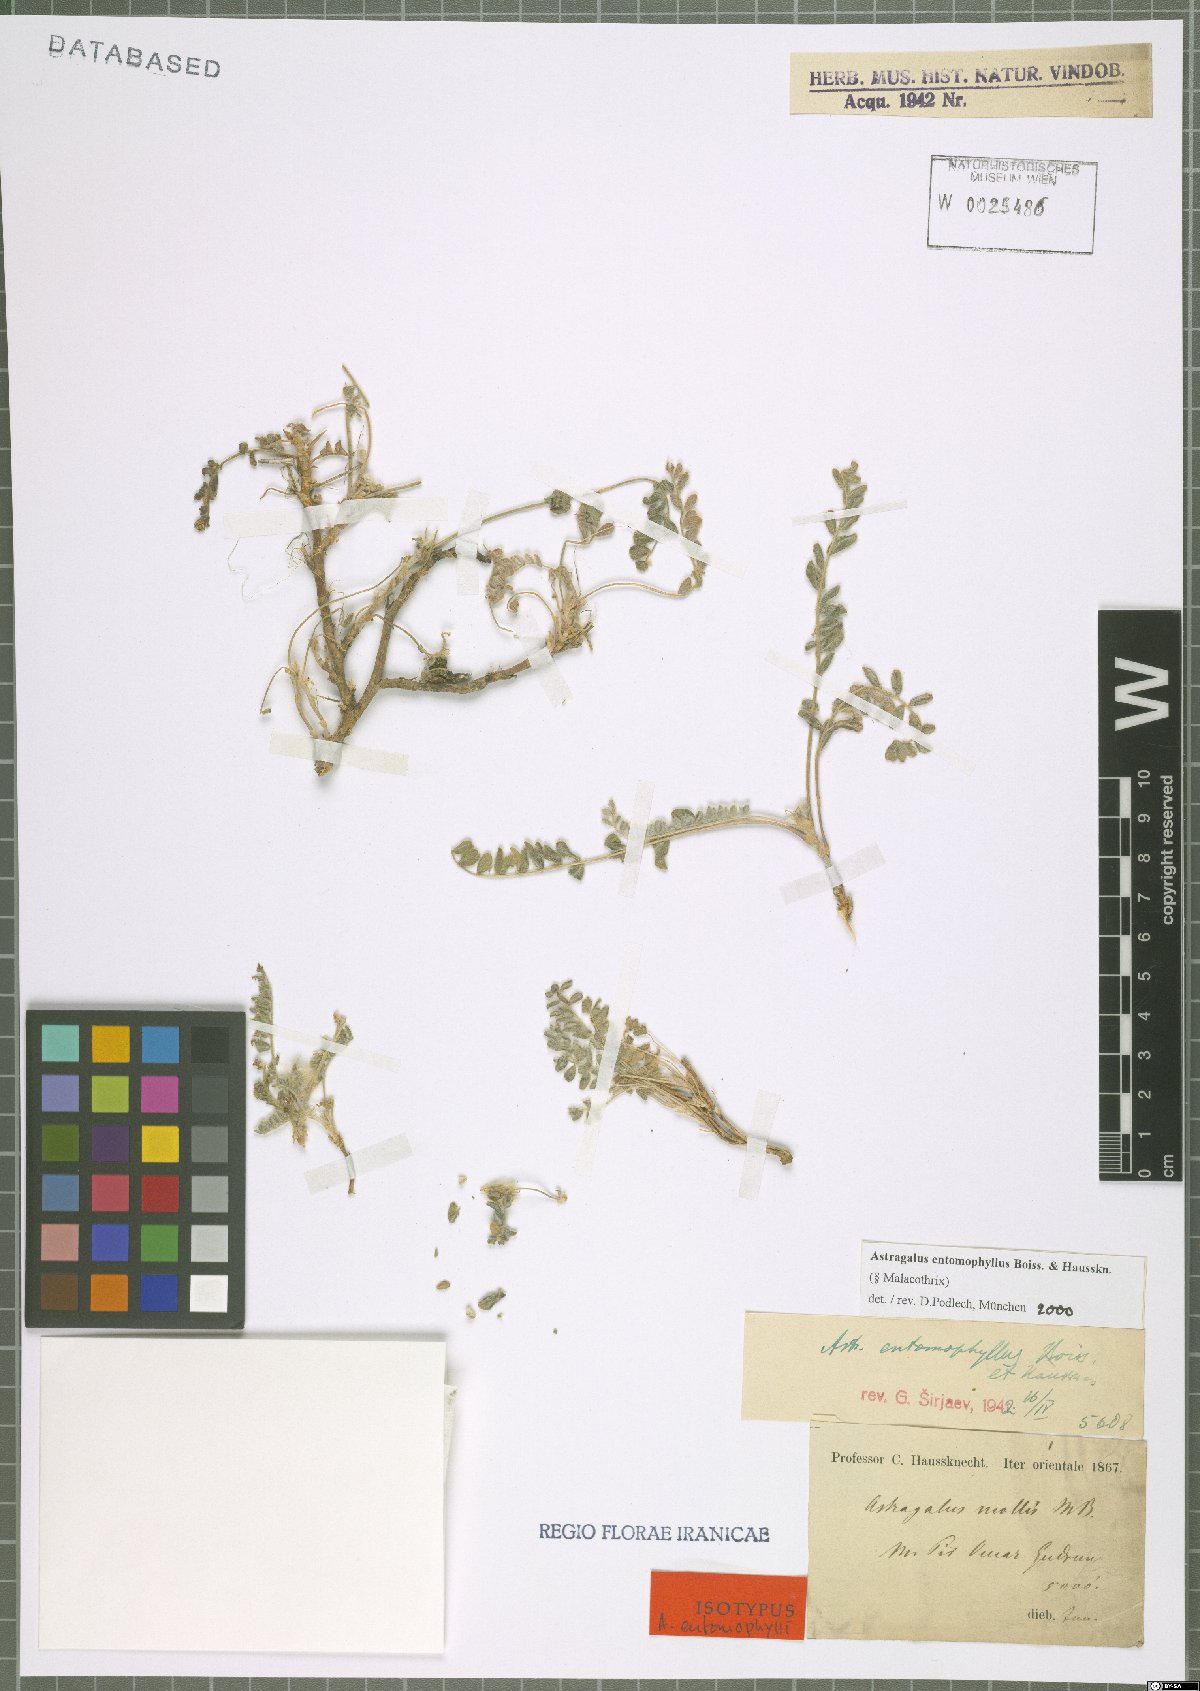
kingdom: Plantae
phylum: Tracheophyta
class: Magnoliopsida
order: Fabales
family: Fabaceae
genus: Astragalus
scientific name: Astragalus entomophyllus
